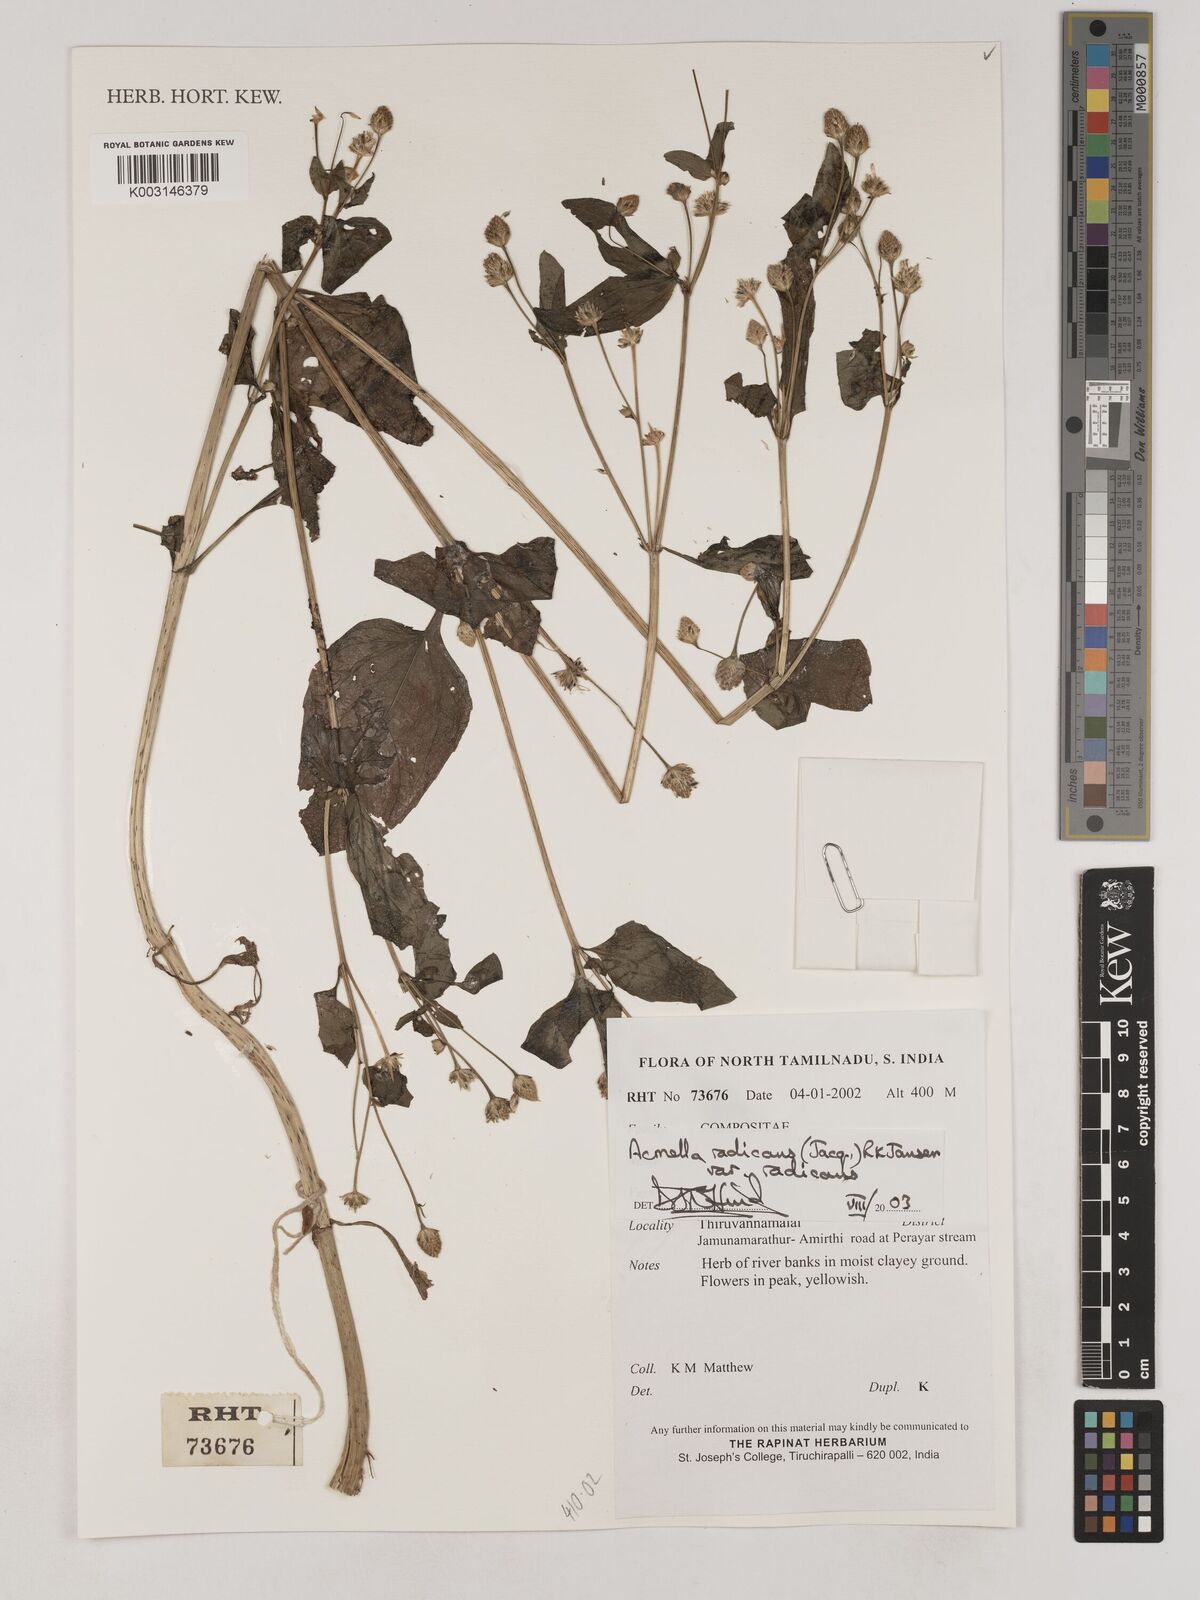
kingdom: Plantae
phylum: Tracheophyta
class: Magnoliopsida
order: Asterales
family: Asteraceae
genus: Acmella
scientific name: Acmella radicans
